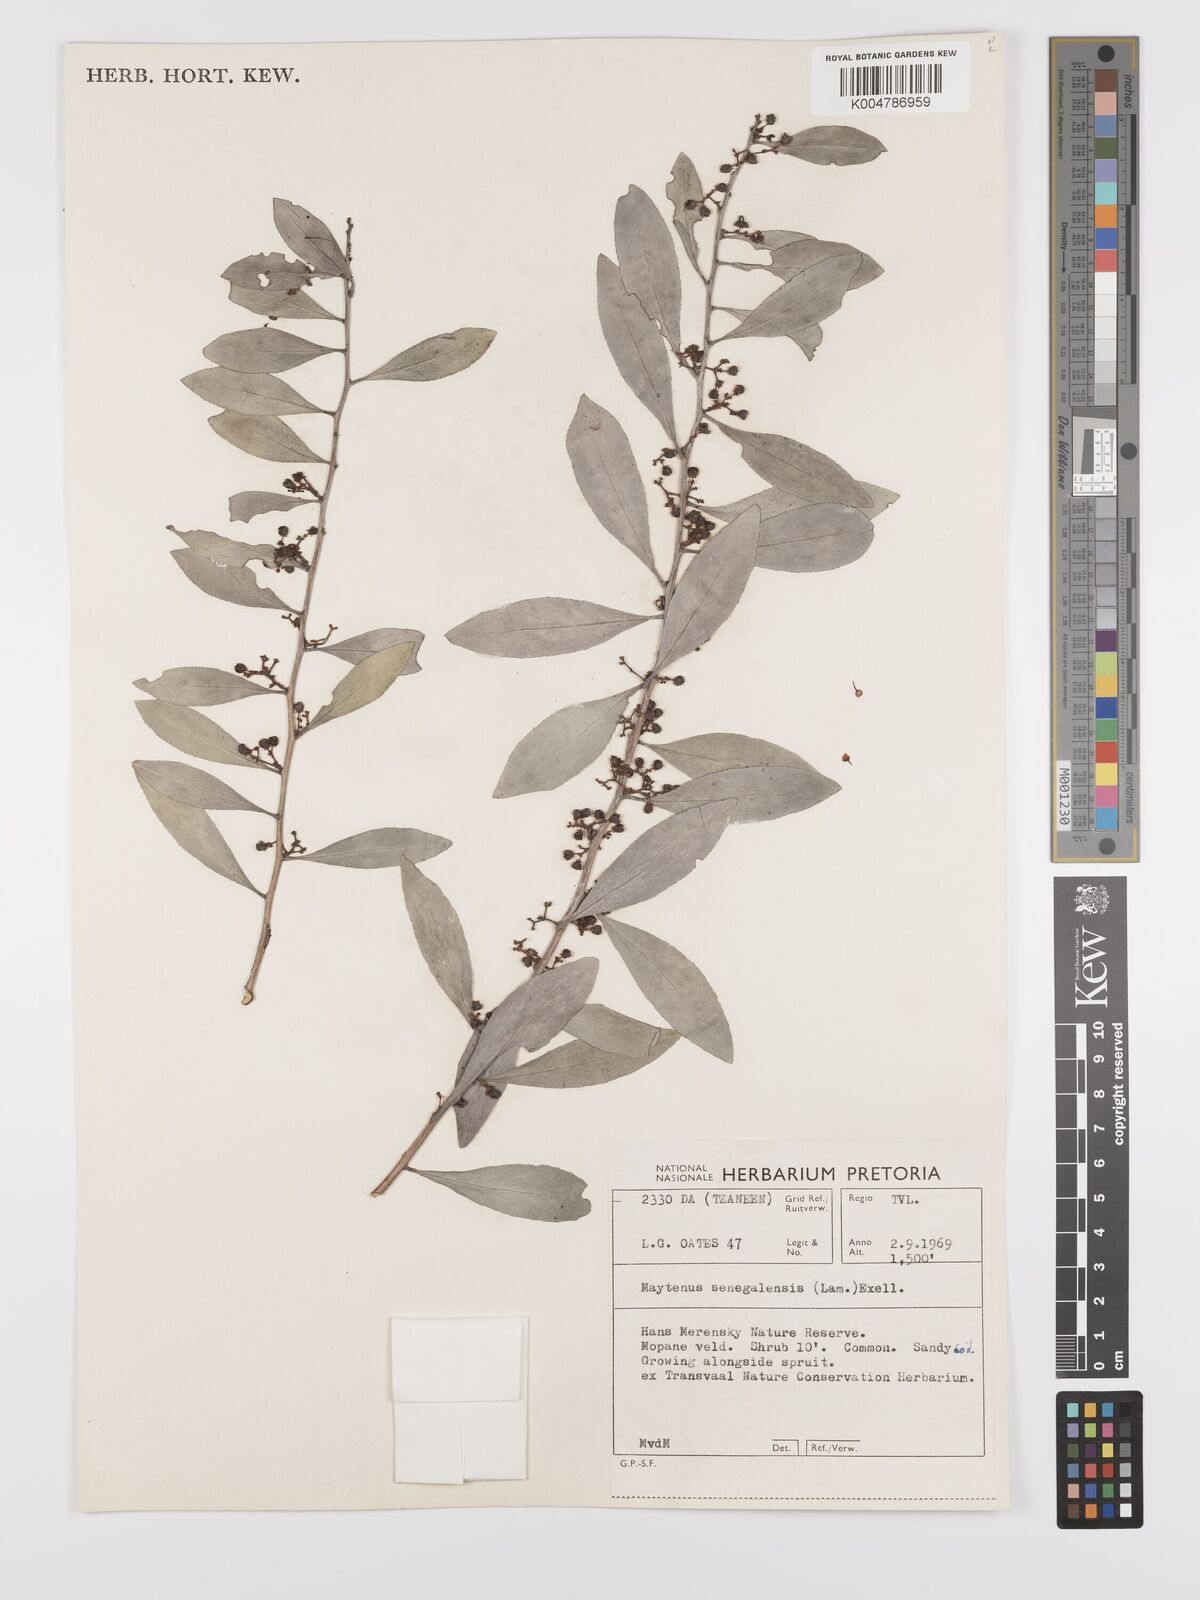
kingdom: Plantae
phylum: Tracheophyta
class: Magnoliopsida
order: Celastrales
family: Celastraceae
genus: Gymnosporia
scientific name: Gymnosporia senegalensis
